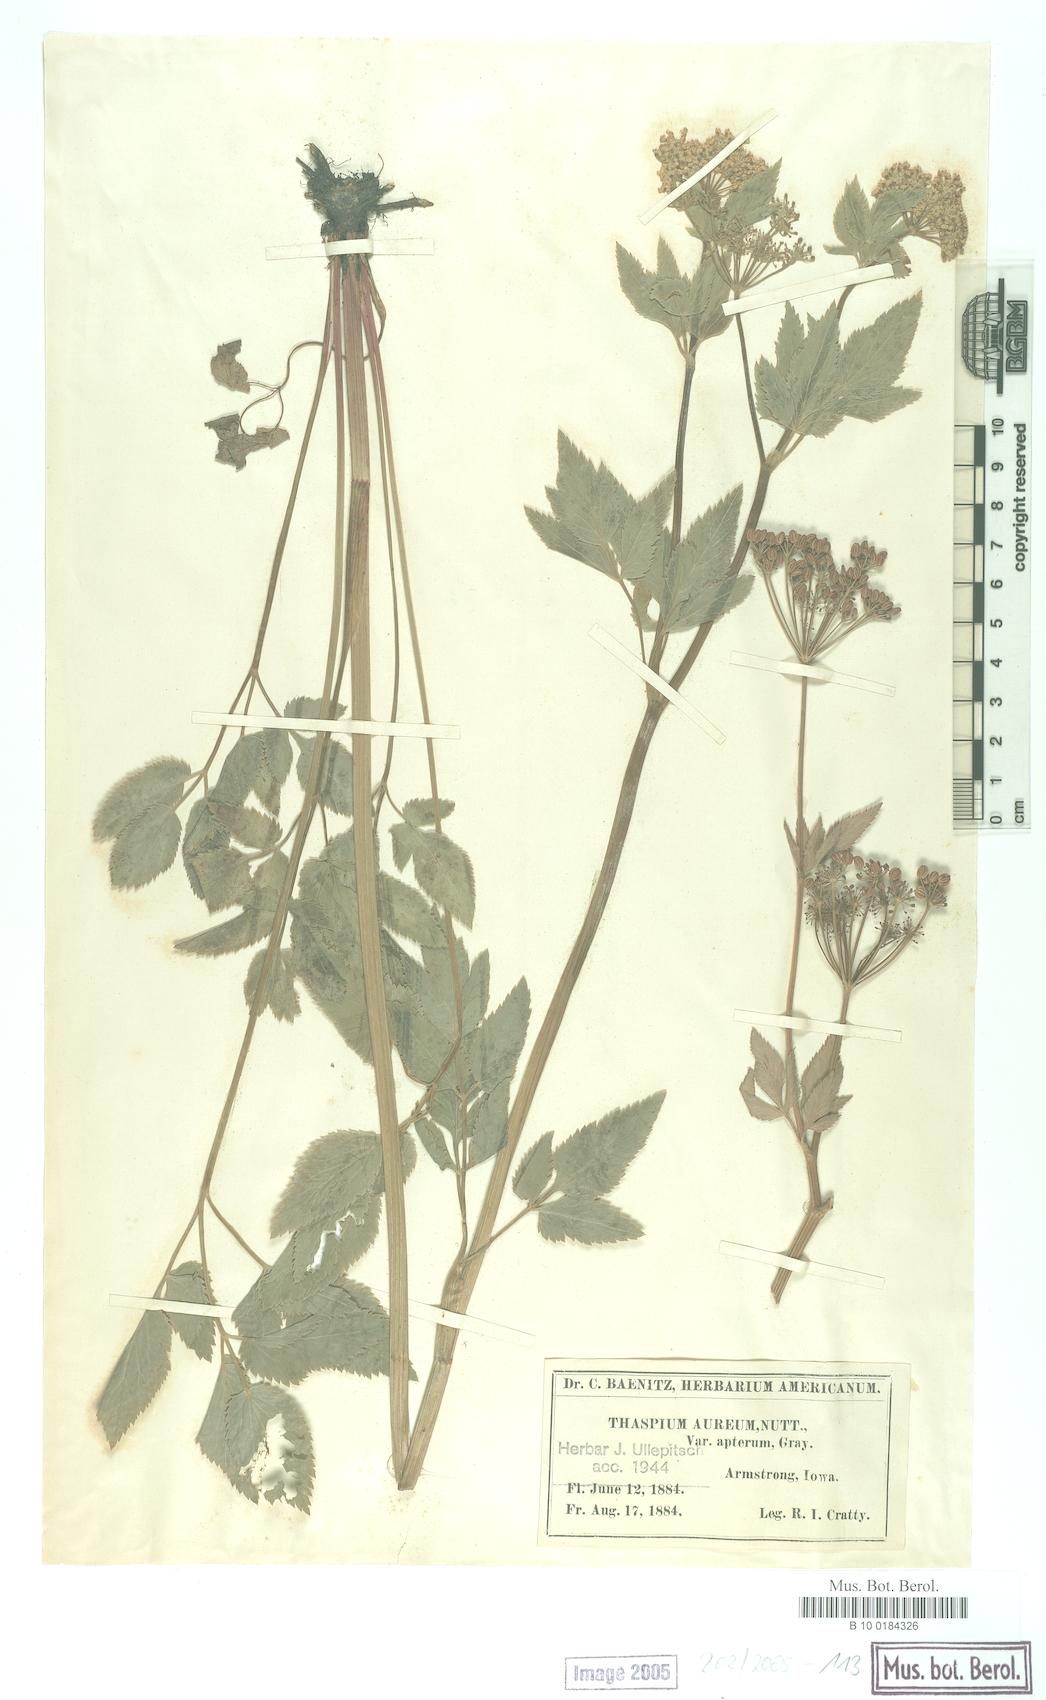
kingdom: Plantae
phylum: Tracheophyta
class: Magnoliopsida
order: Apiales
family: Apiaceae
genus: Thaspium
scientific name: Thaspium trifoliatum
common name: Purple meadow-parsnip
